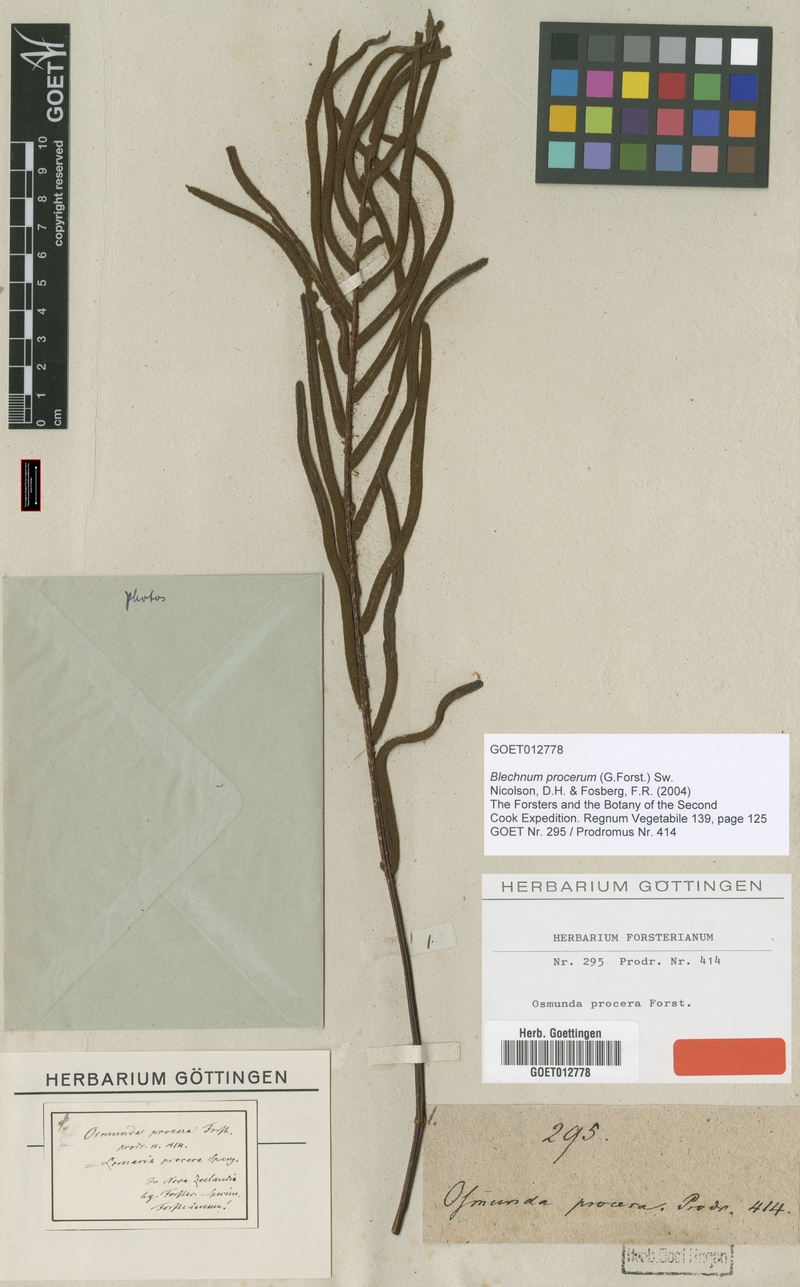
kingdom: Plantae
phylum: Tracheophyta
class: Polypodiopsida
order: Polypodiales
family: Blechnaceae
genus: Parablechnum
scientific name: Parablechnum procerum
